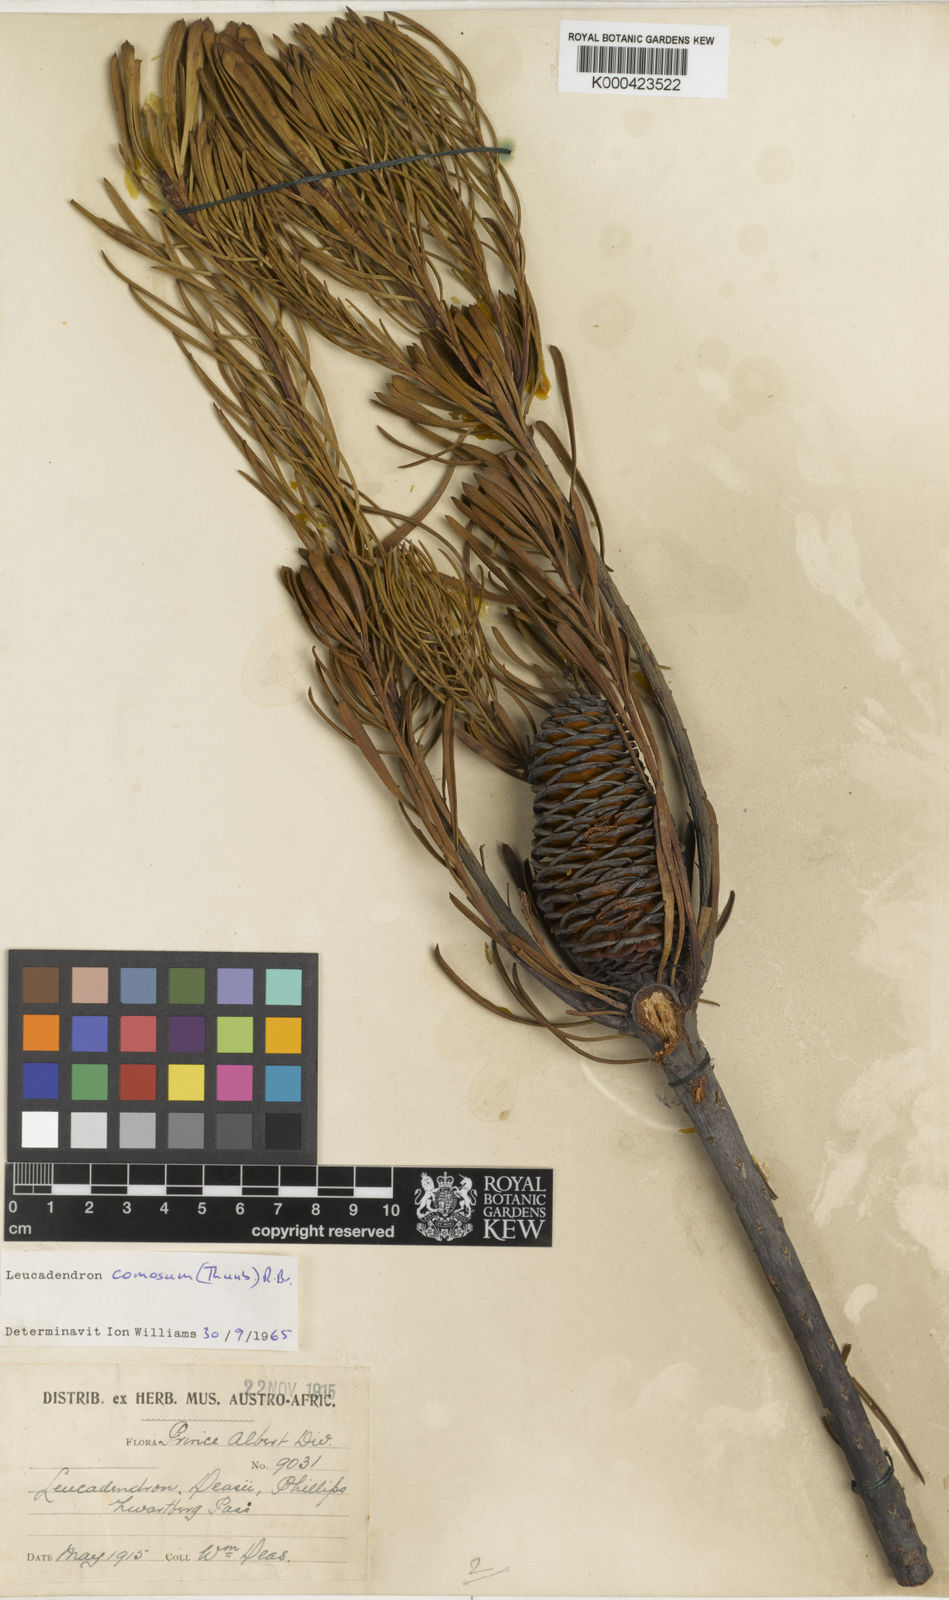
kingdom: Plantae
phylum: Tracheophyta
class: Magnoliopsida
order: Proteales
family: Proteaceae
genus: Leucadendron
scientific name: Leucadendron comosum
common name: Ridge-cone conebush
